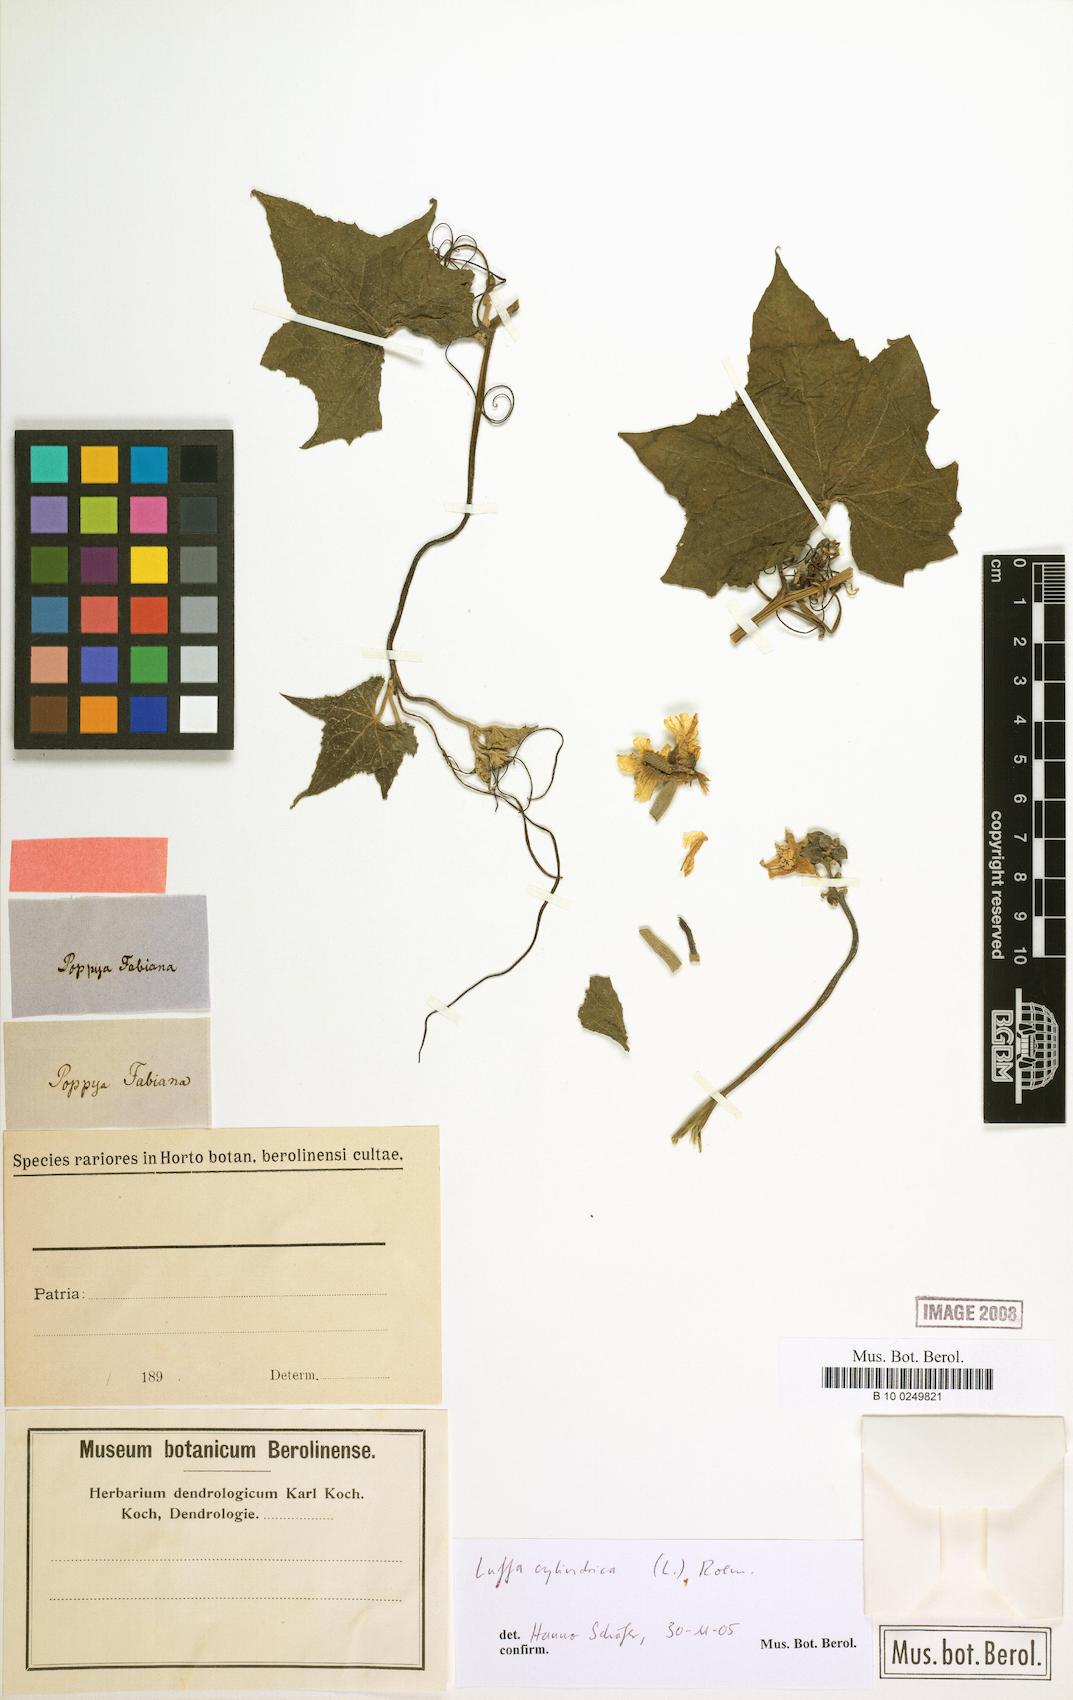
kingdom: Plantae
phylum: Tracheophyta
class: Magnoliopsida
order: Cucurbitales
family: Cucurbitaceae
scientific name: Cucurbitaceae
